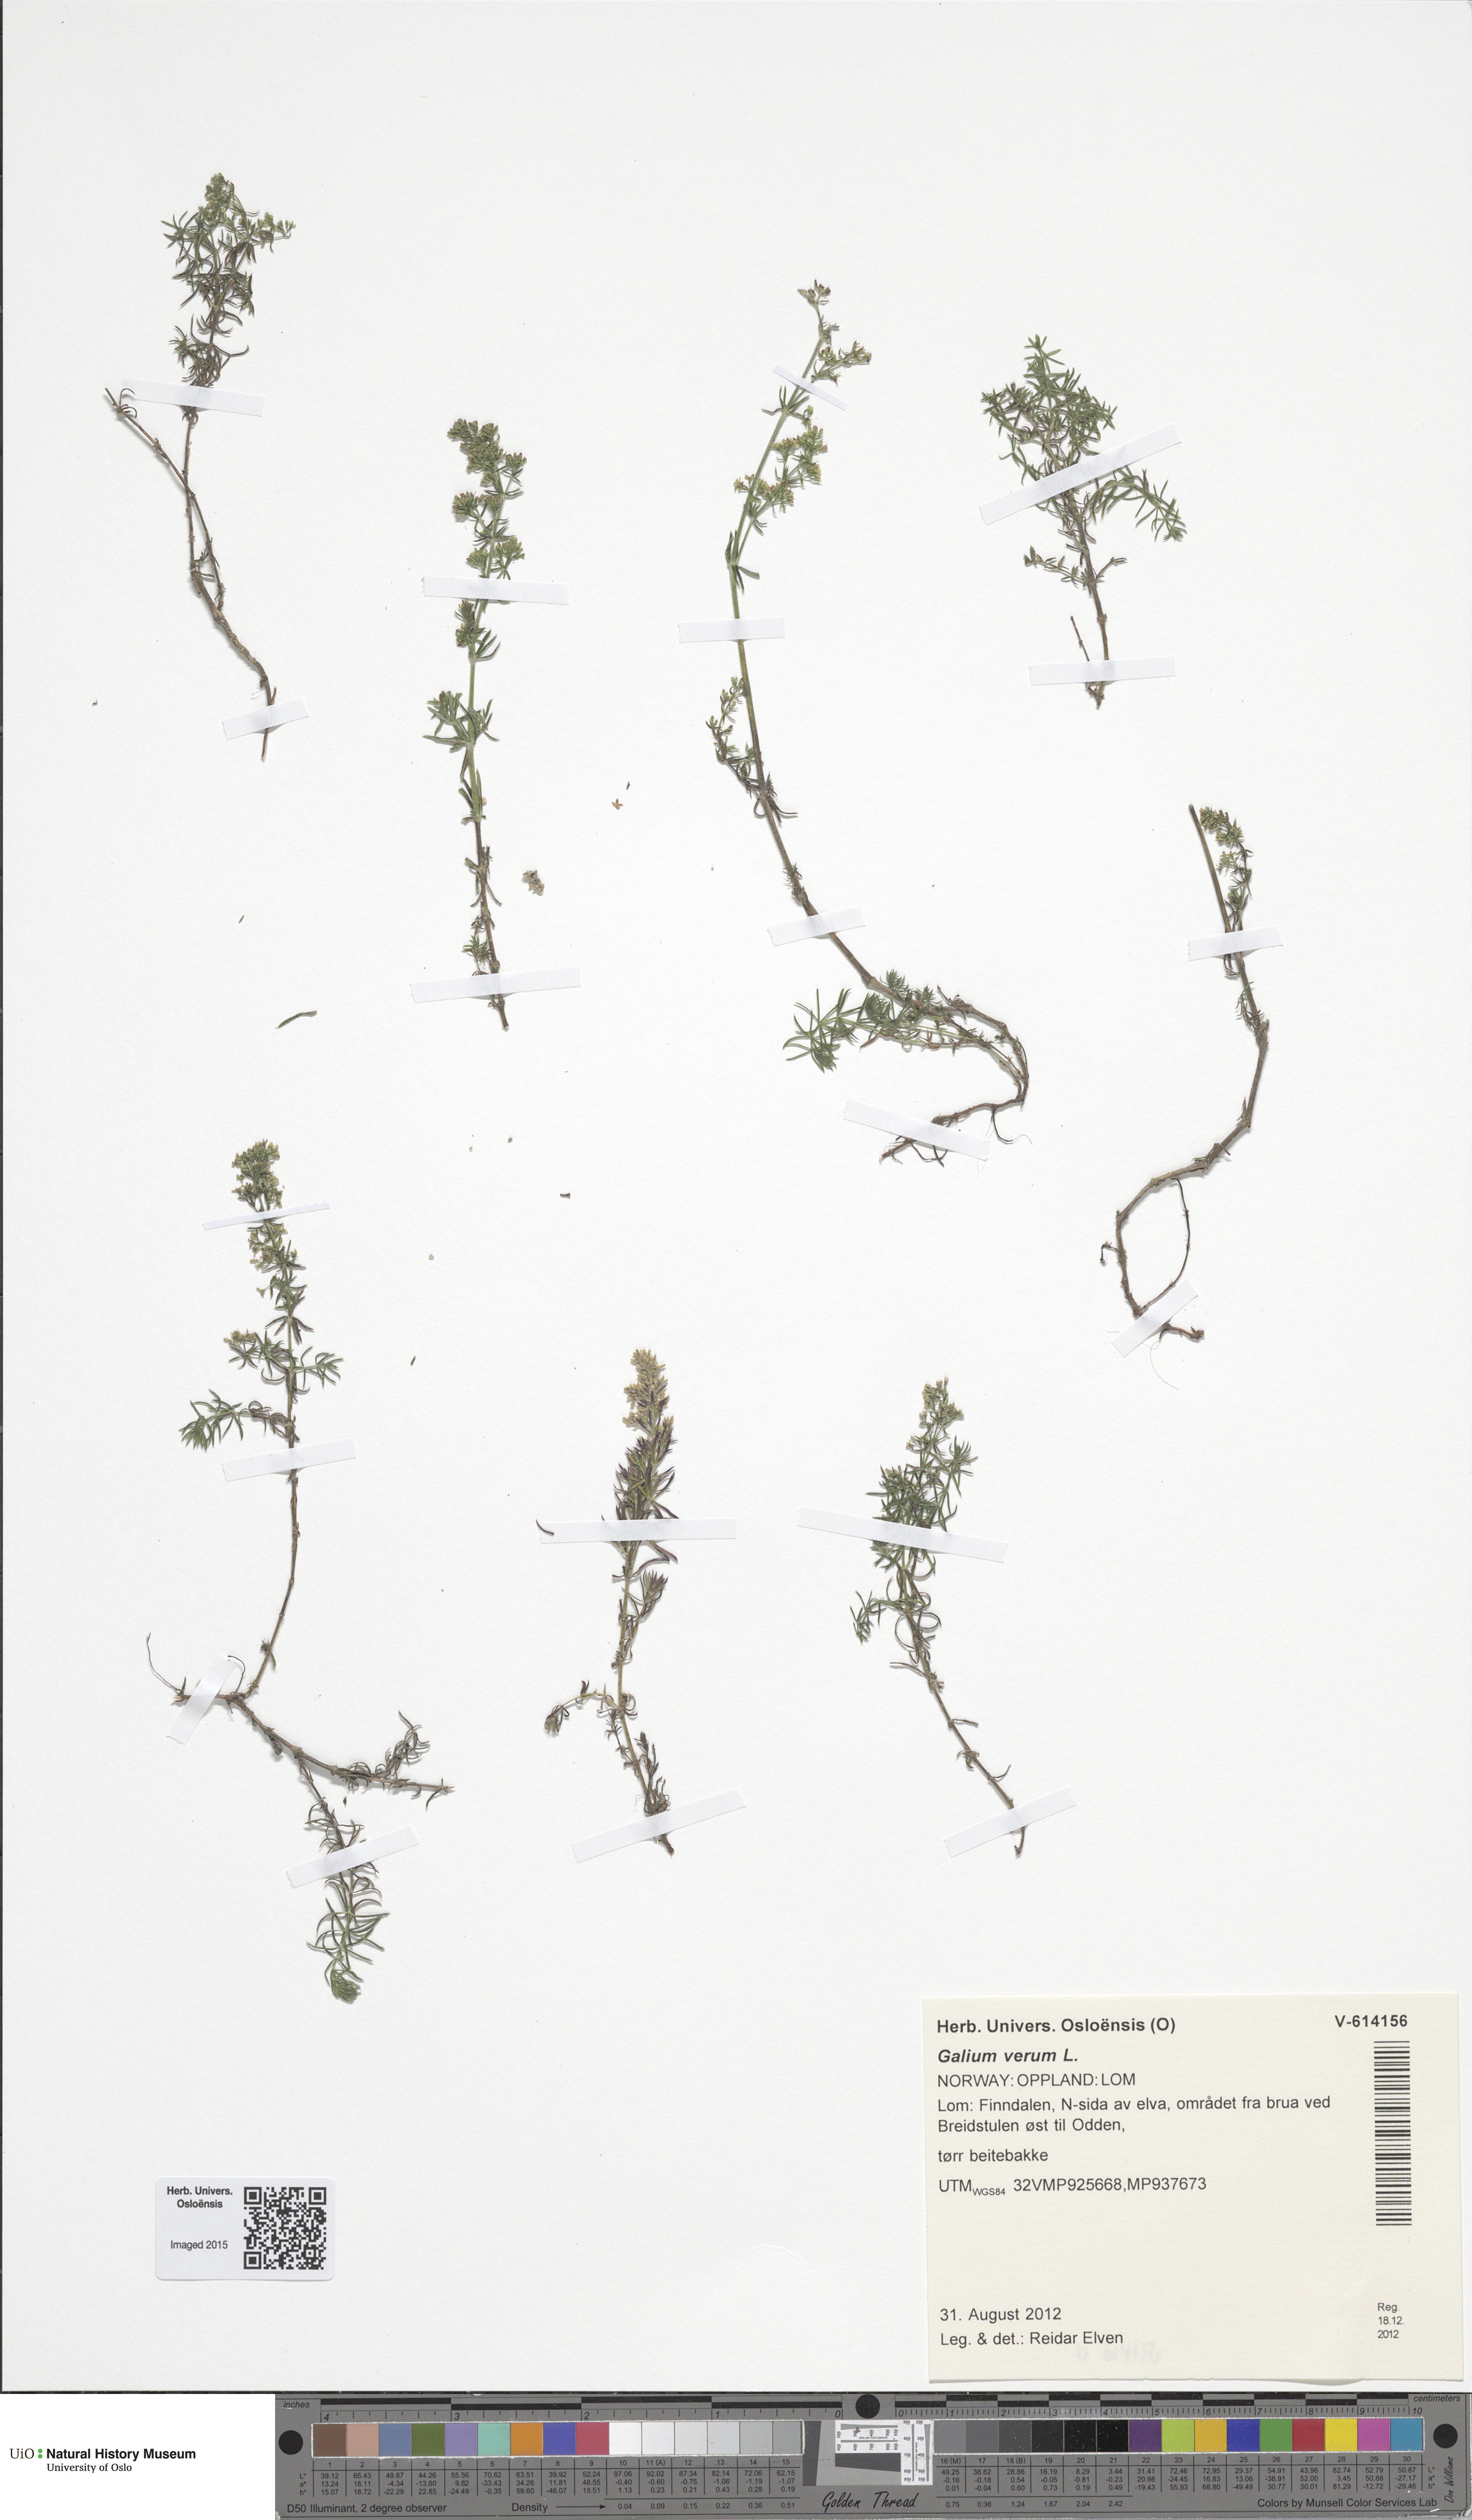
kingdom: Plantae
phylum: Tracheophyta
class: Magnoliopsida
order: Gentianales
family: Rubiaceae
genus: Galium
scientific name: Galium verum
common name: Lady's bedstraw
